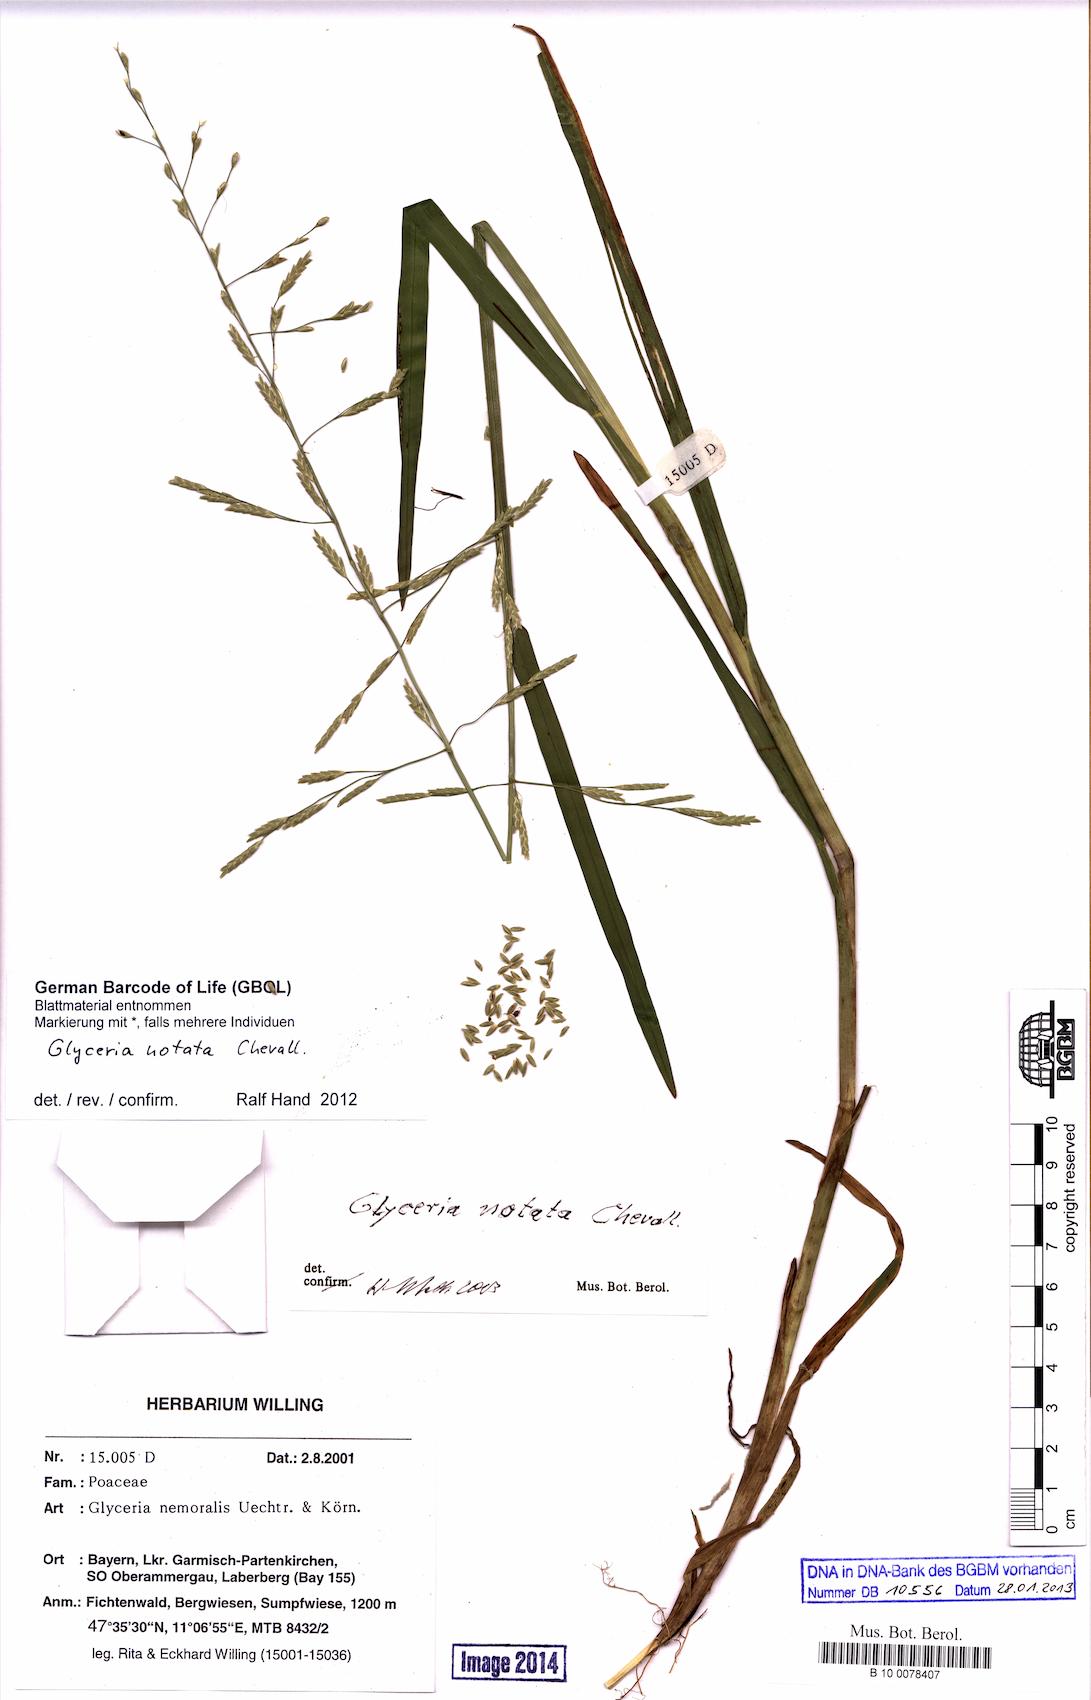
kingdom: Plantae
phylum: Tracheophyta
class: Liliopsida
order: Poales
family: Poaceae
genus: Glyceria
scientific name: Glyceria notata
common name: Plicate sweet-grass
